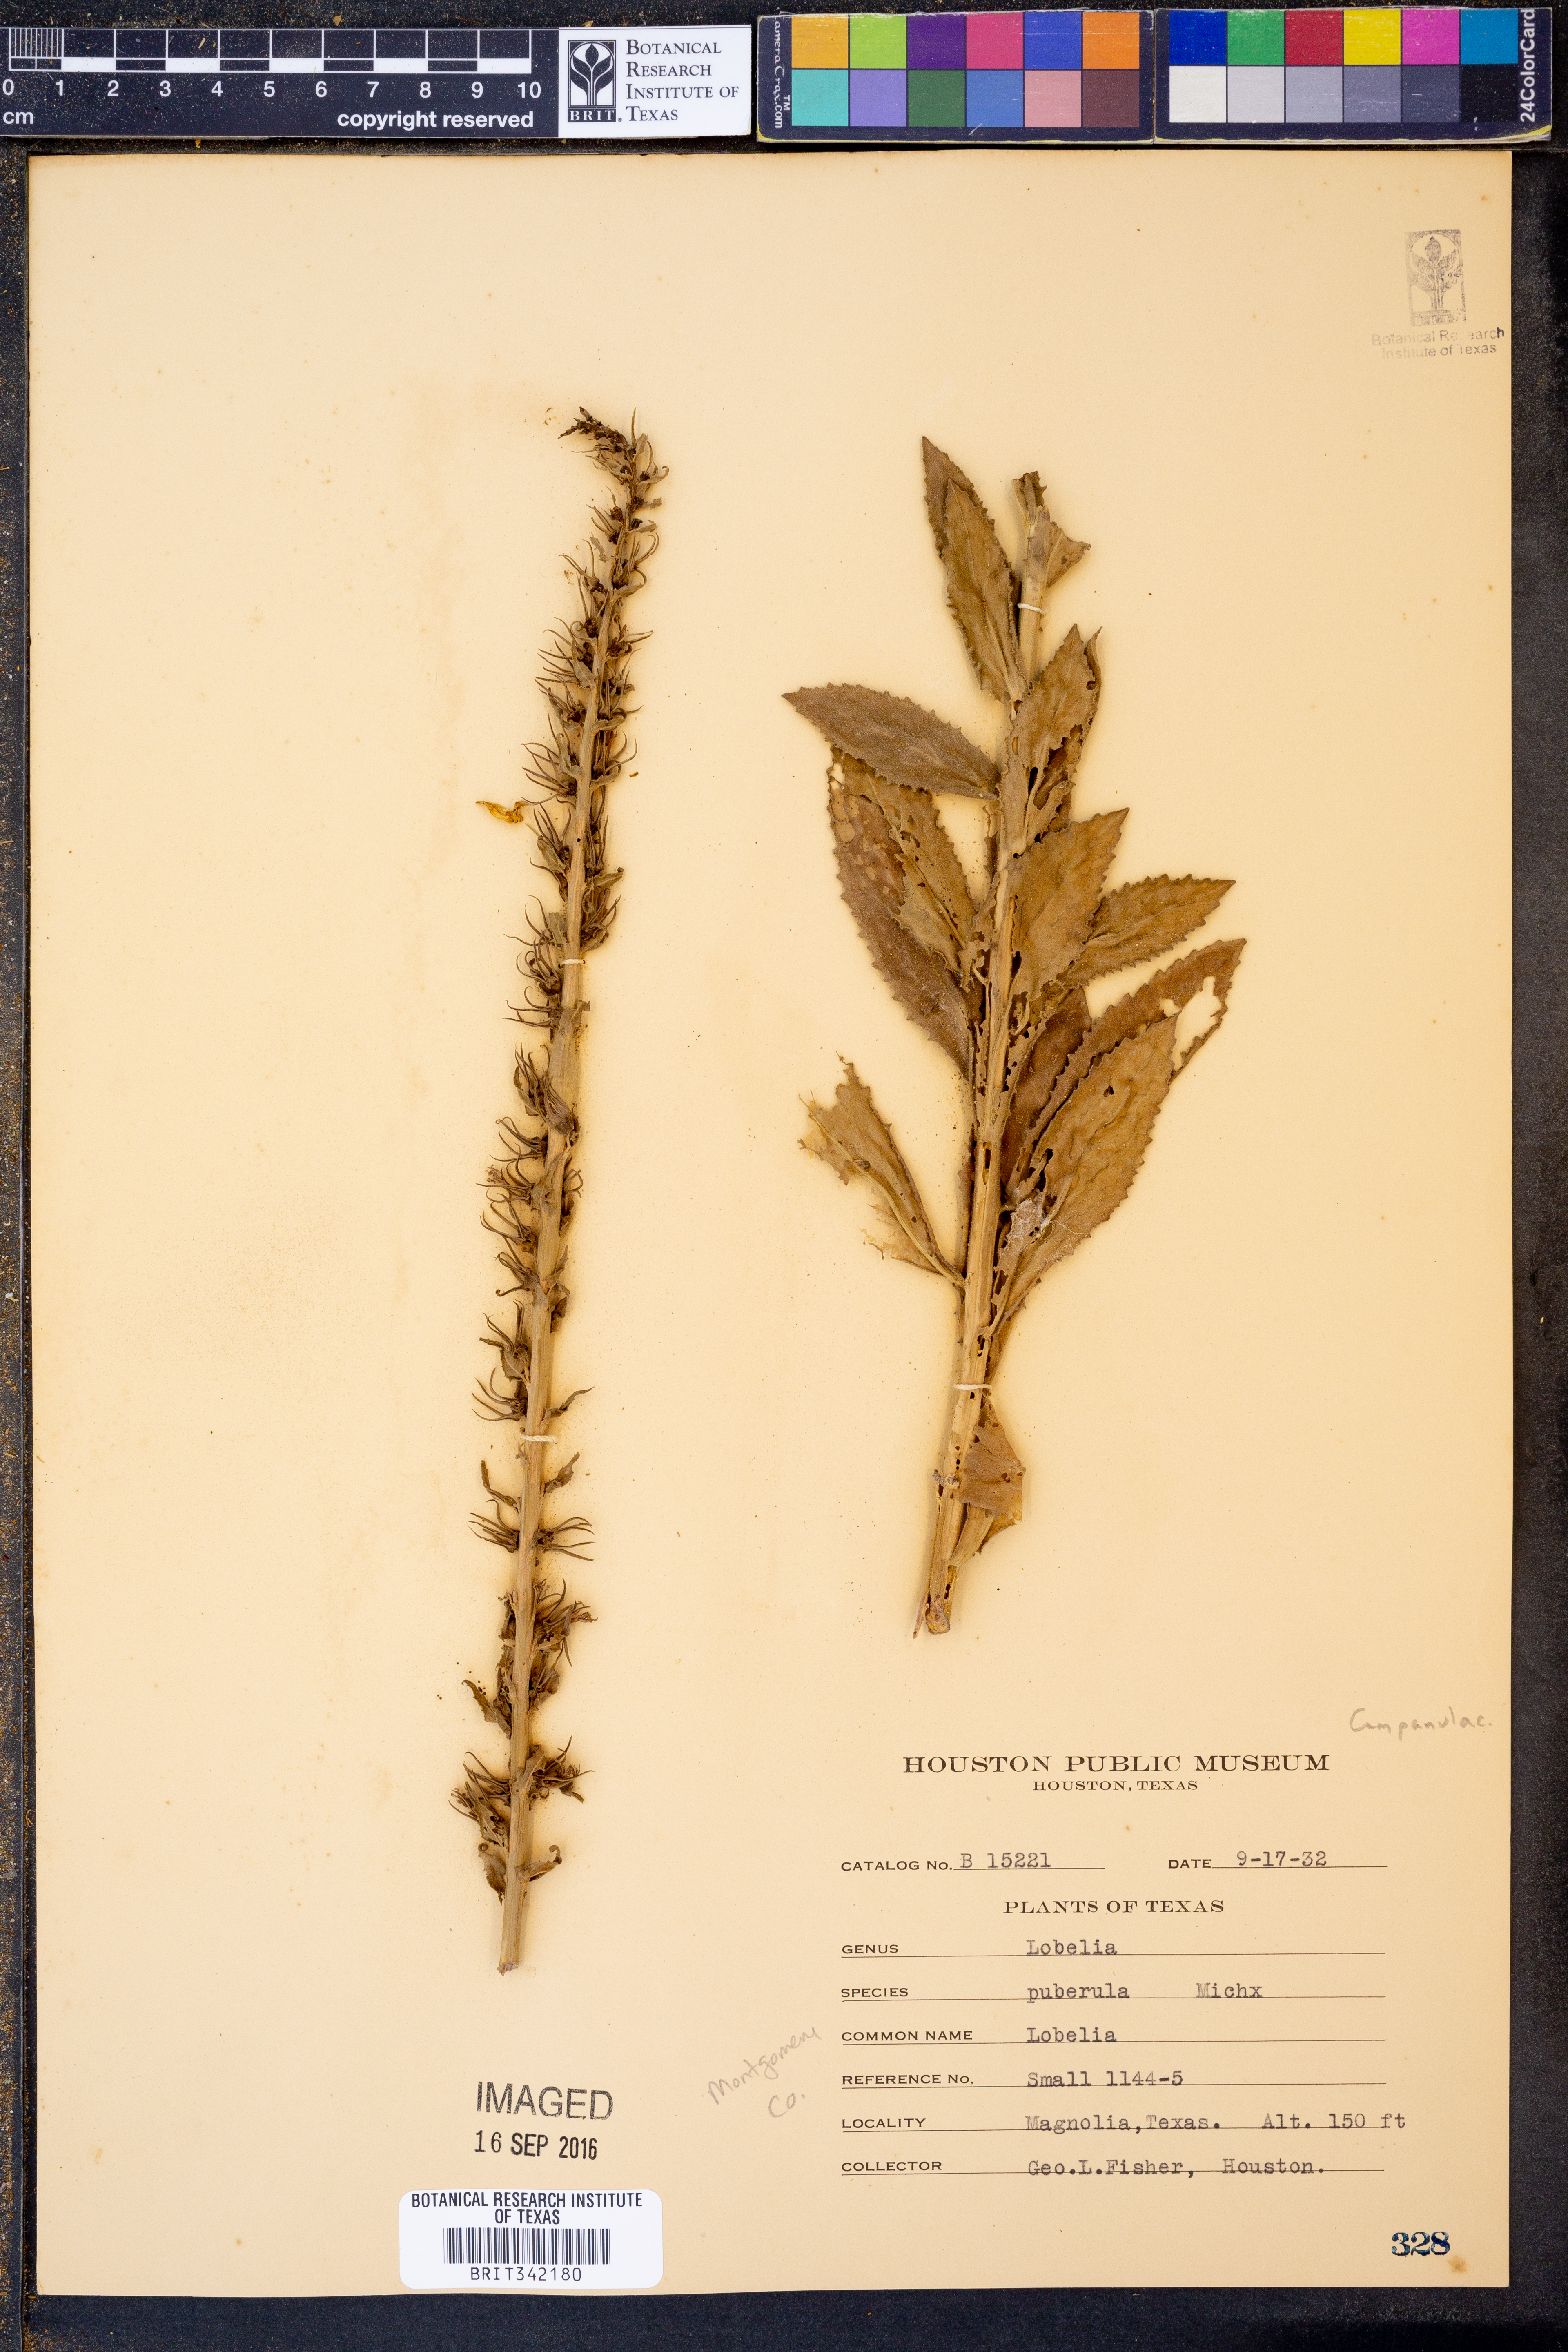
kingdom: Plantae
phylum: Tracheophyta
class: Magnoliopsida
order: Asterales
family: Campanulaceae
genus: Lobelia
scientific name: Lobelia puberula
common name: Purple dewdrop
